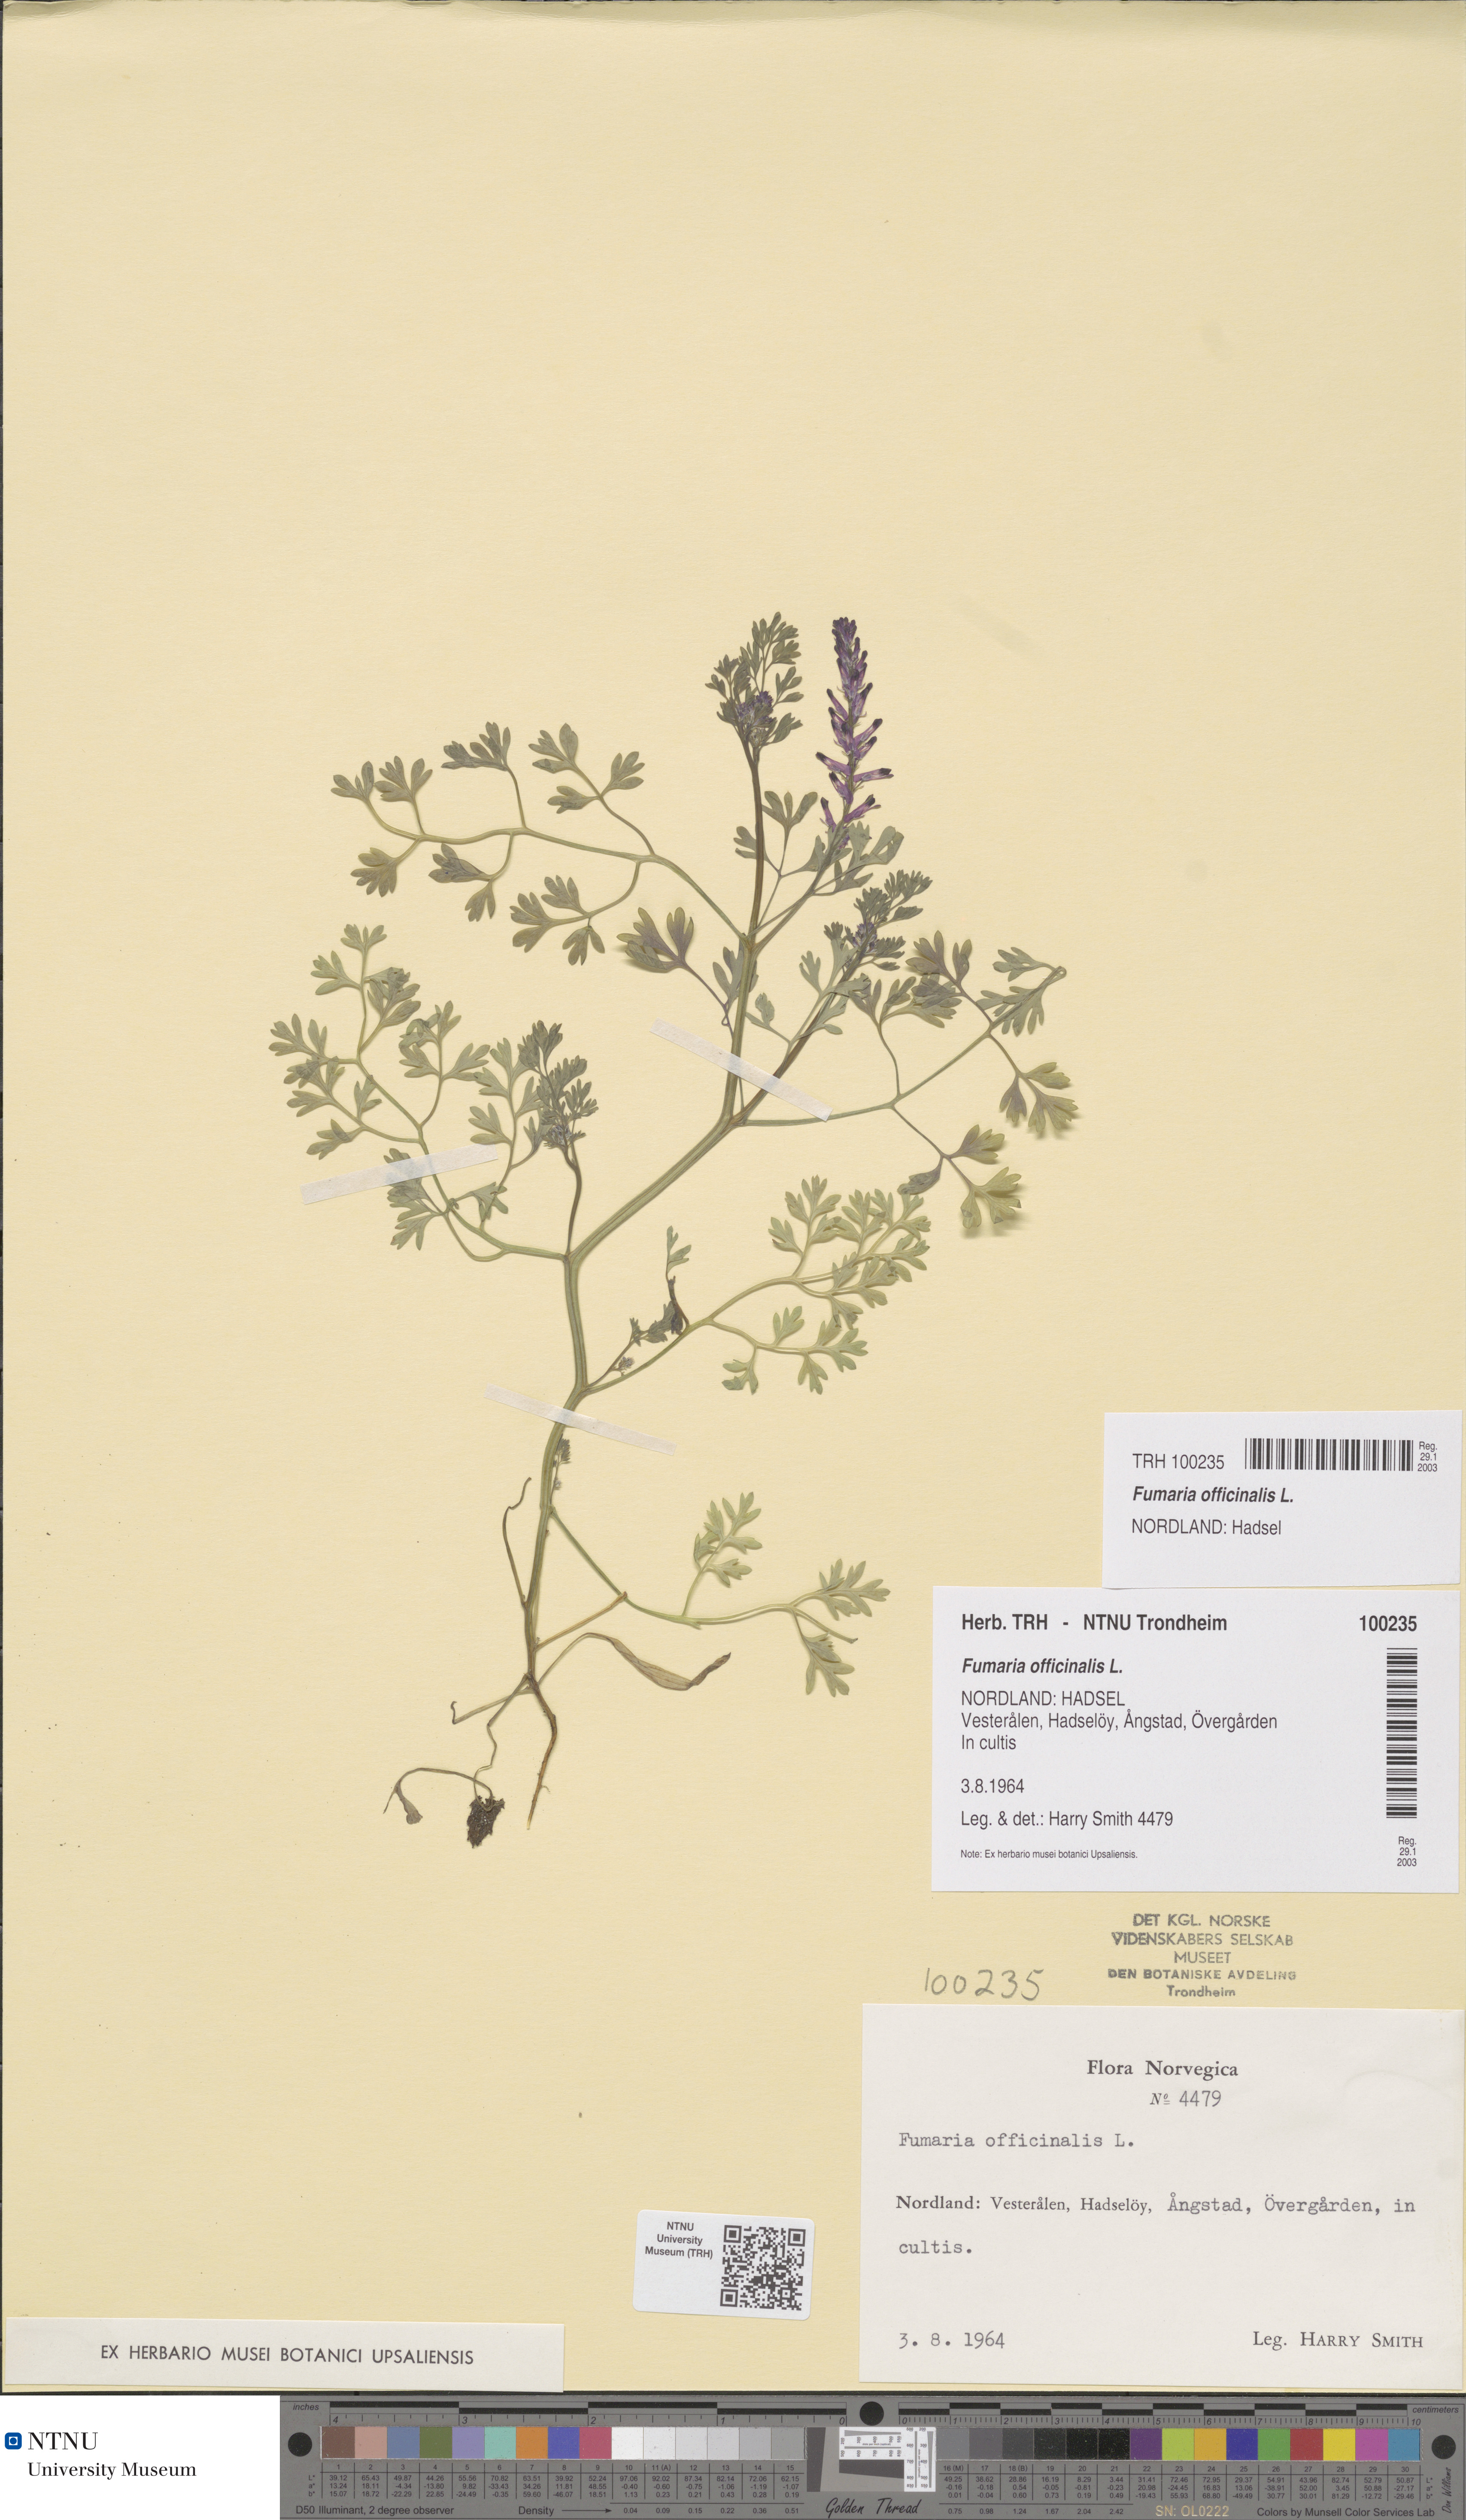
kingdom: Plantae
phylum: Tracheophyta
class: Magnoliopsida
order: Ranunculales
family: Papaveraceae
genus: Fumaria
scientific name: Fumaria officinalis
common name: Common fumitory
